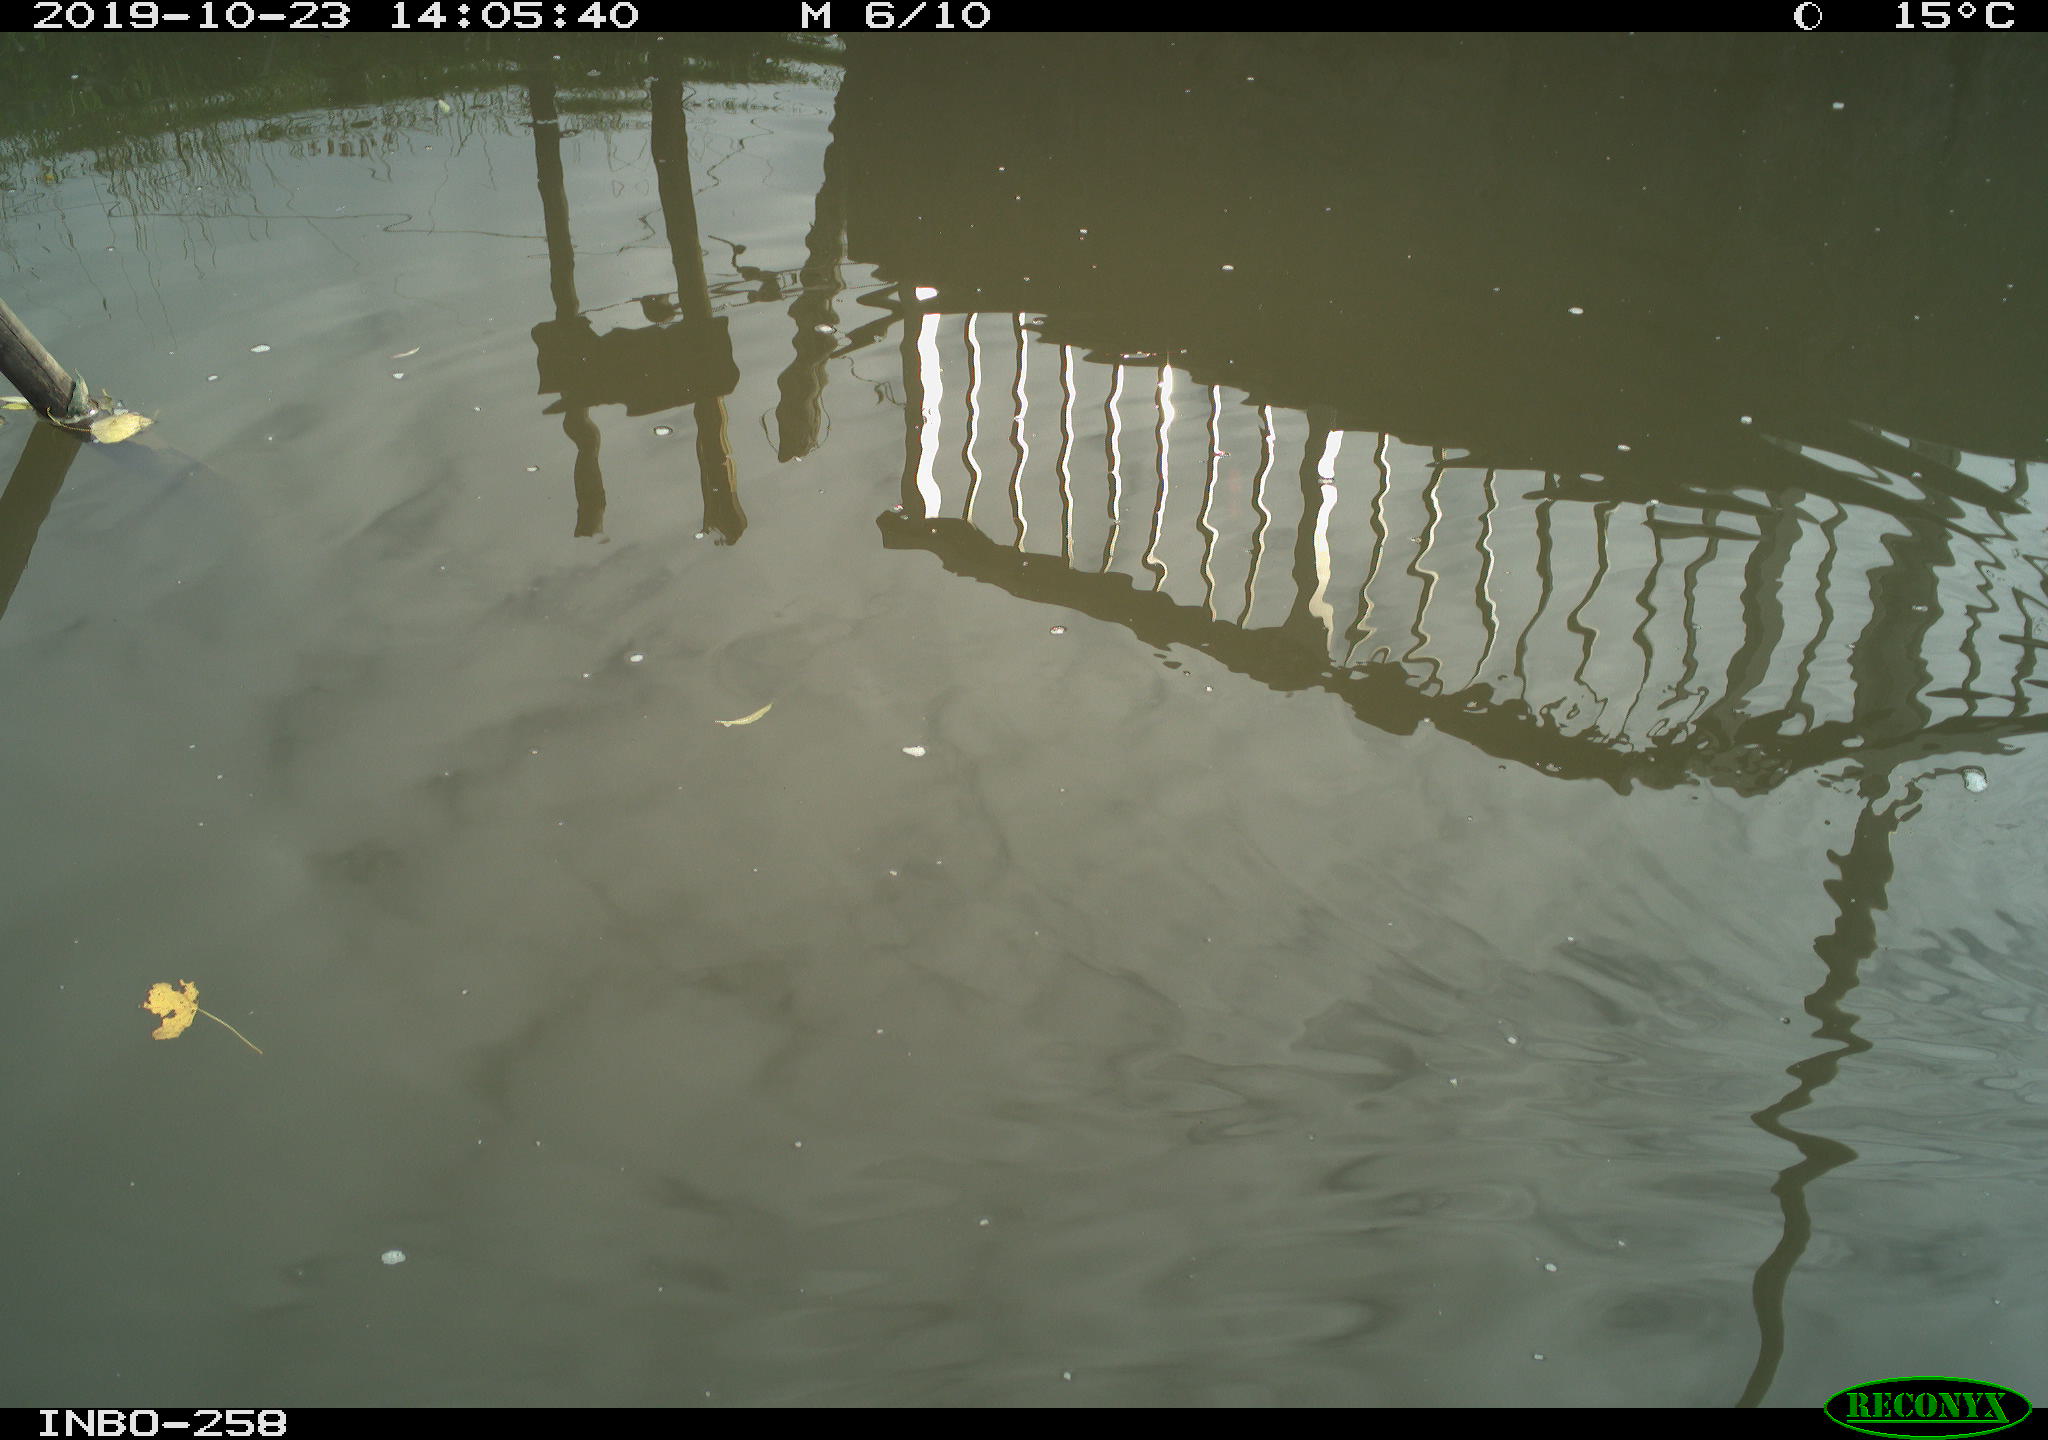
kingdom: Animalia
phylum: Chordata
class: Aves
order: Gruiformes
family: Rallidae
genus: Gallinula
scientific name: Gallinula chloropus
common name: Common moorhen
